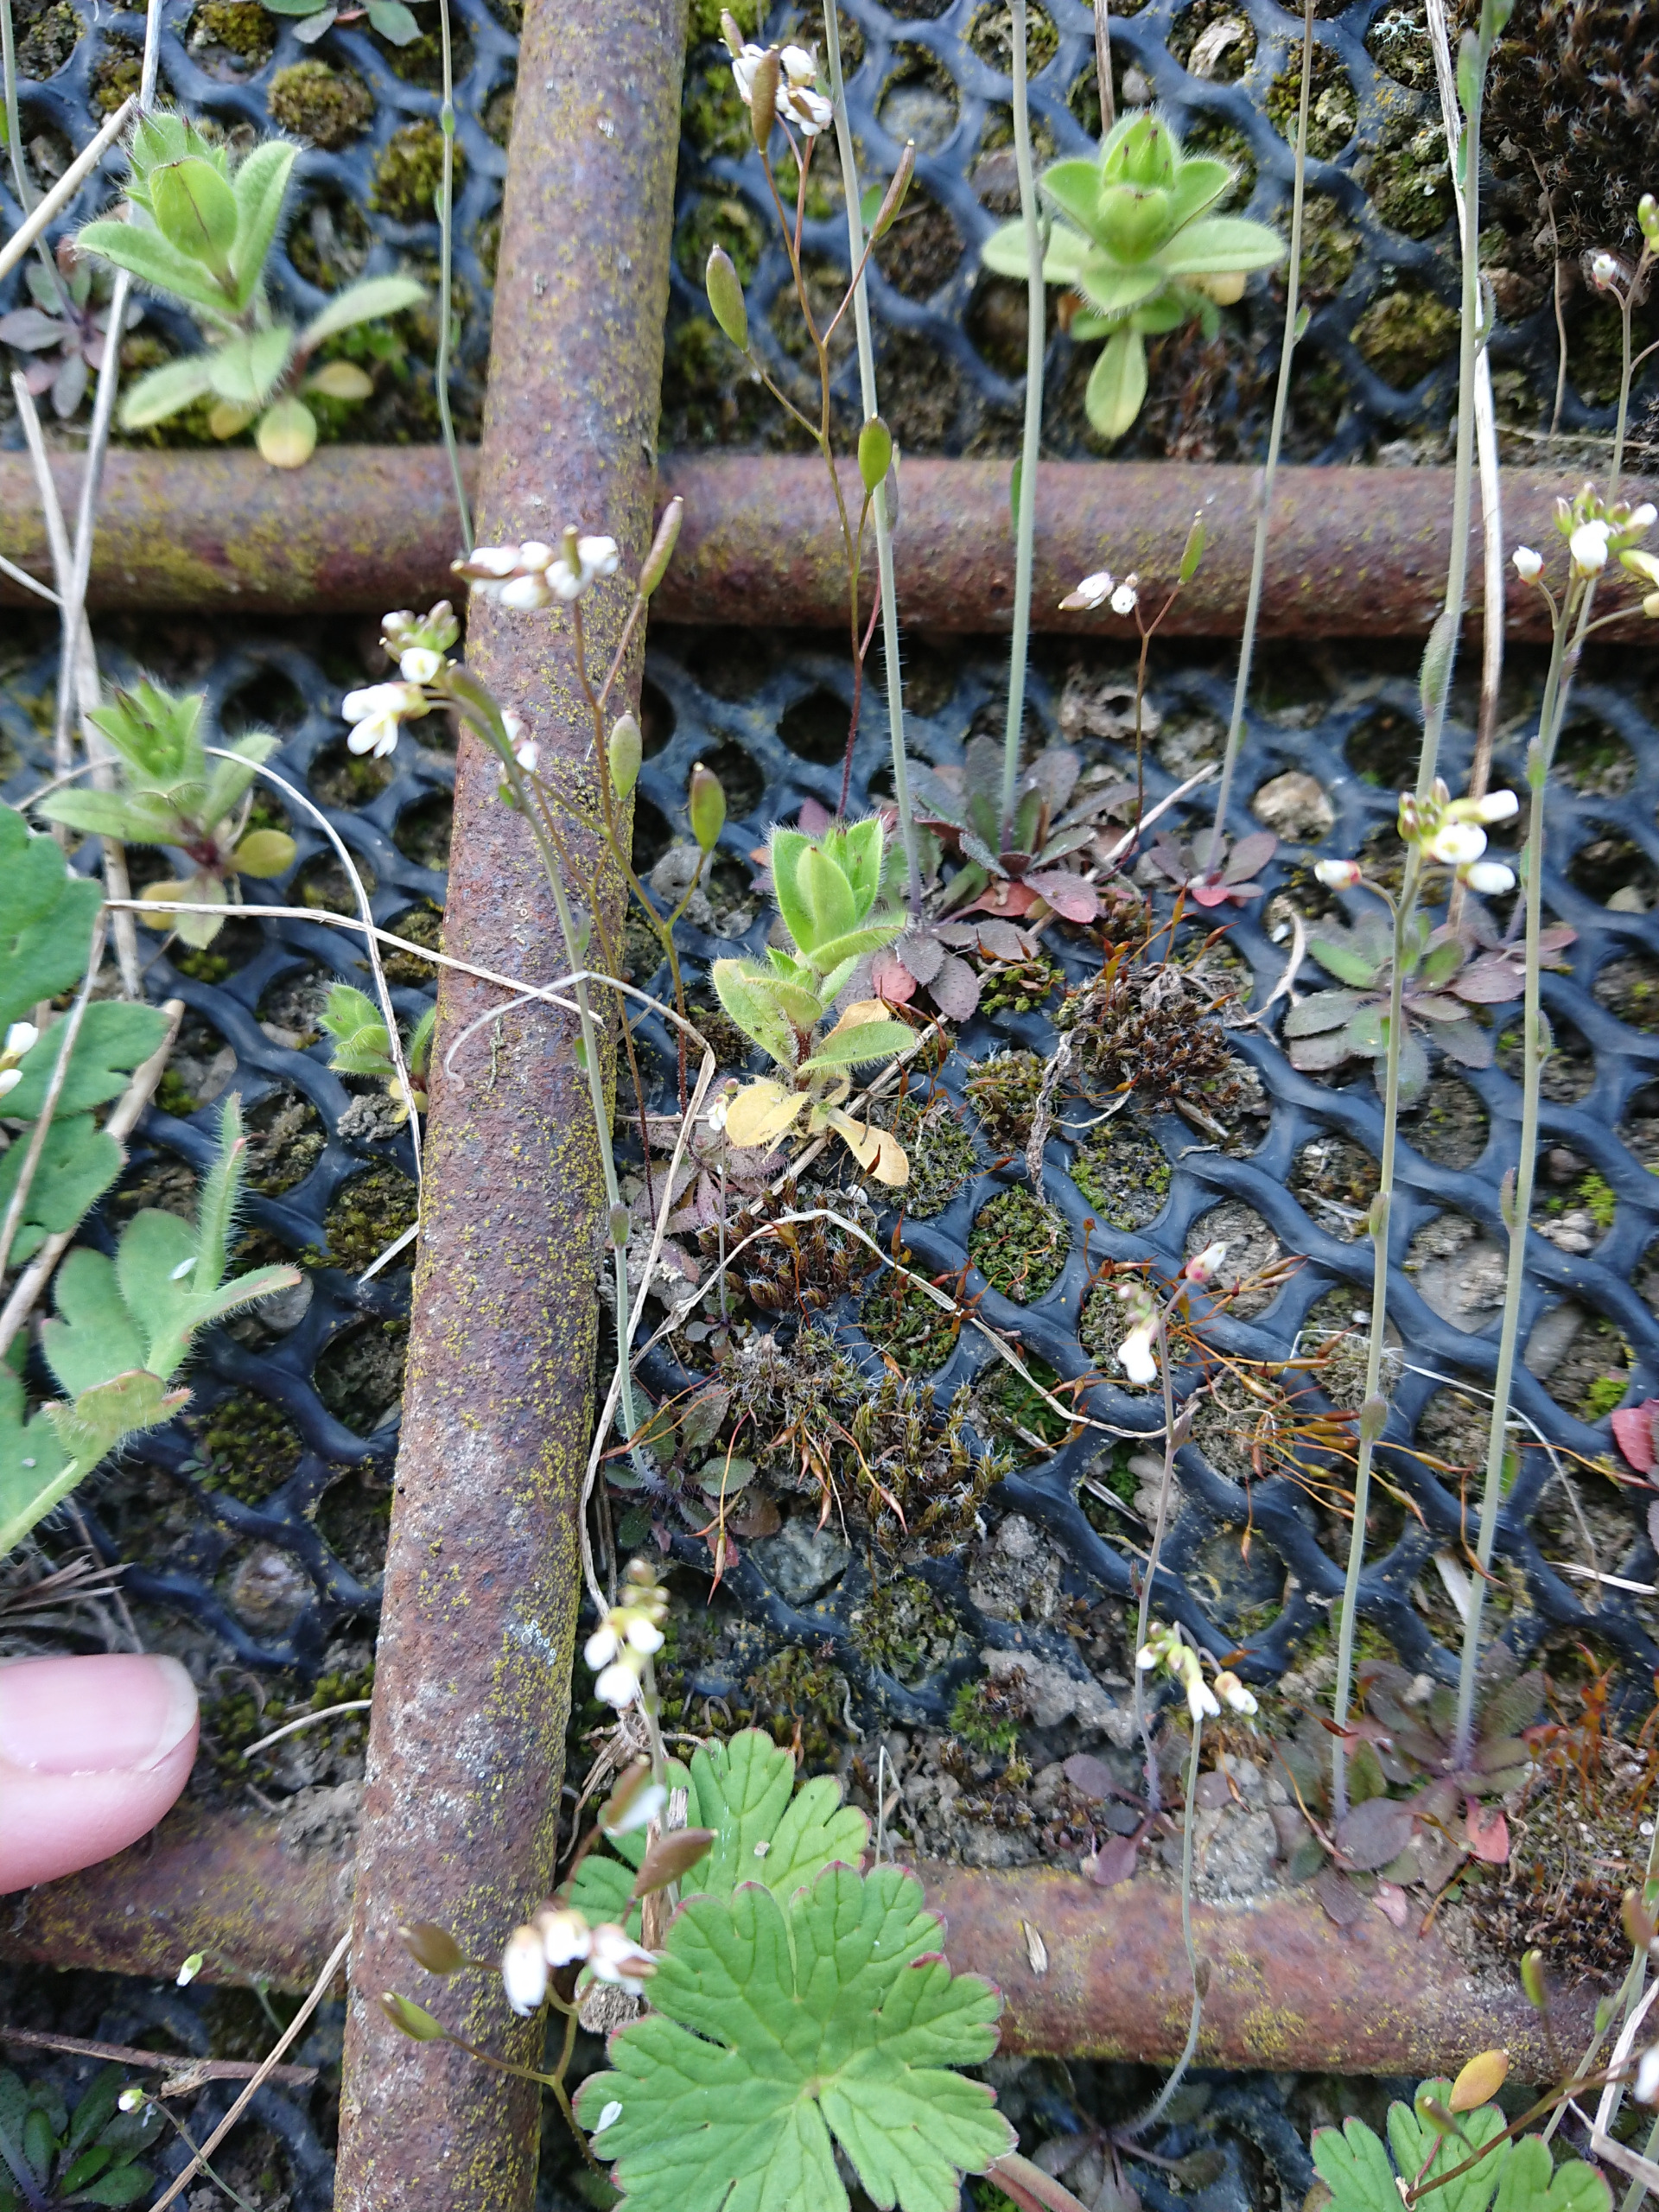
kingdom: Plantae
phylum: Tracheophyta
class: Magnoliopsida
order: Brassicales
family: Brassicaceae
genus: Draba
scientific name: Draba verna
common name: Vår-gæslingeblomst
